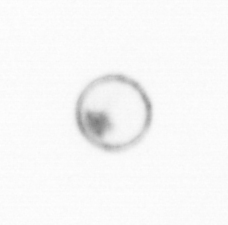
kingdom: Chromista
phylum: Myzozoa
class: Dinophyceae
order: Noctilucales
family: Noctilucaceae
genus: Noctiluca
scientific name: Noctiluca scintillans
